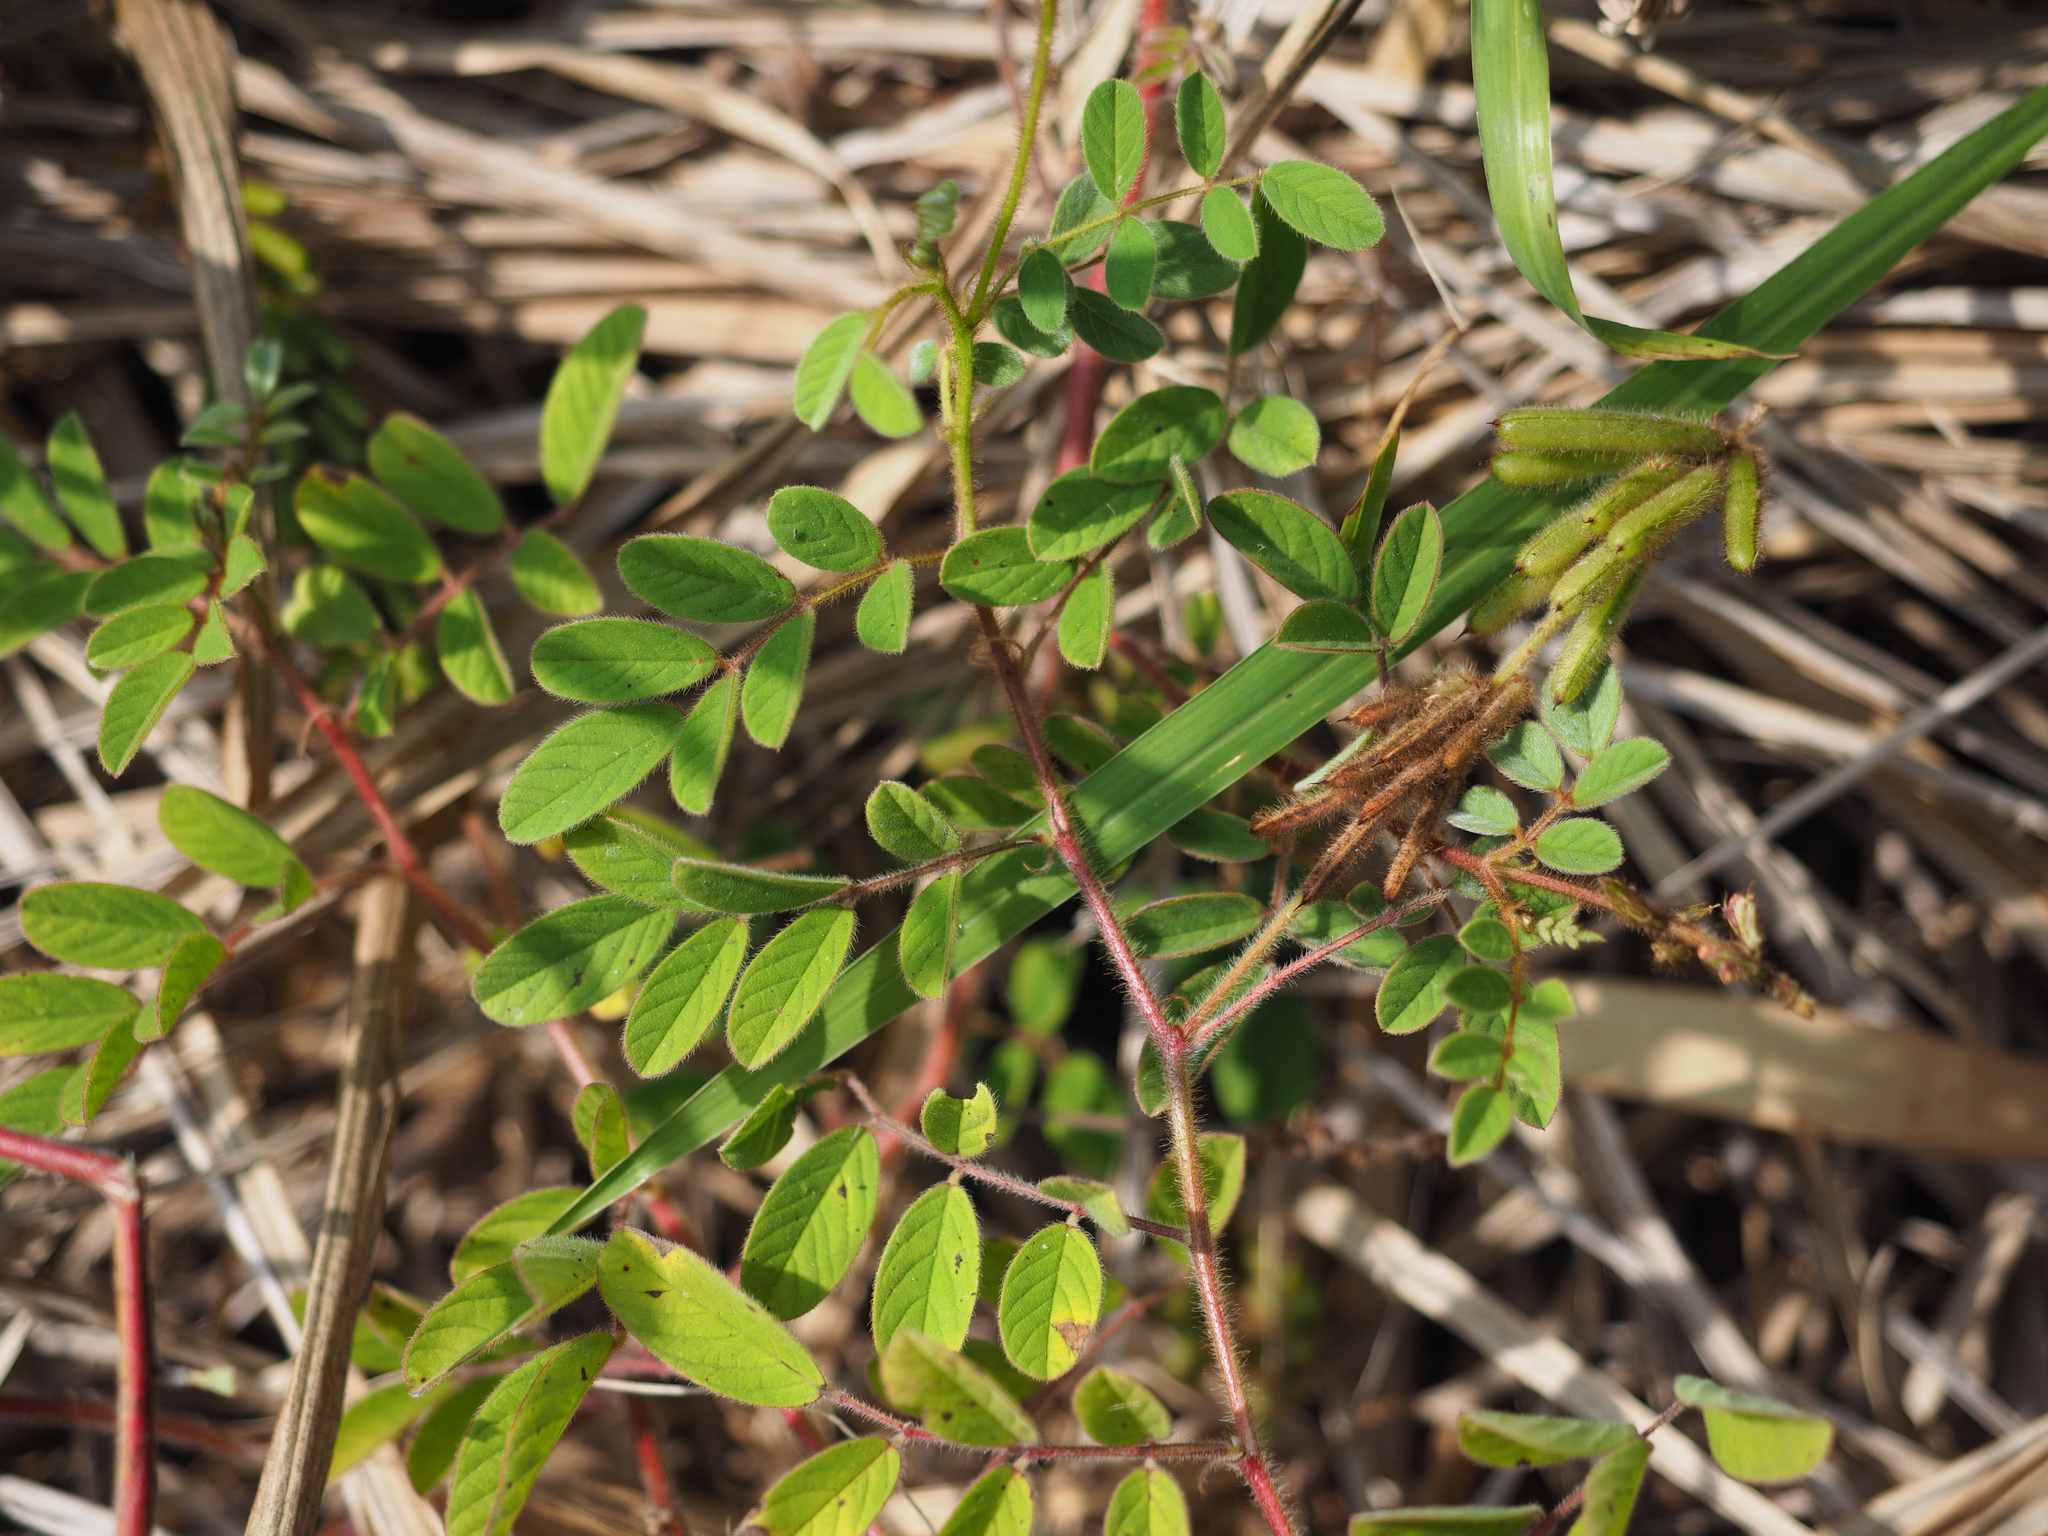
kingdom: Plantae
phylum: Tracheophyta
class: Magnoliopsida
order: Fabales
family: Fabaceae
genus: Indigofera
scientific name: Indigofera hirsuta
